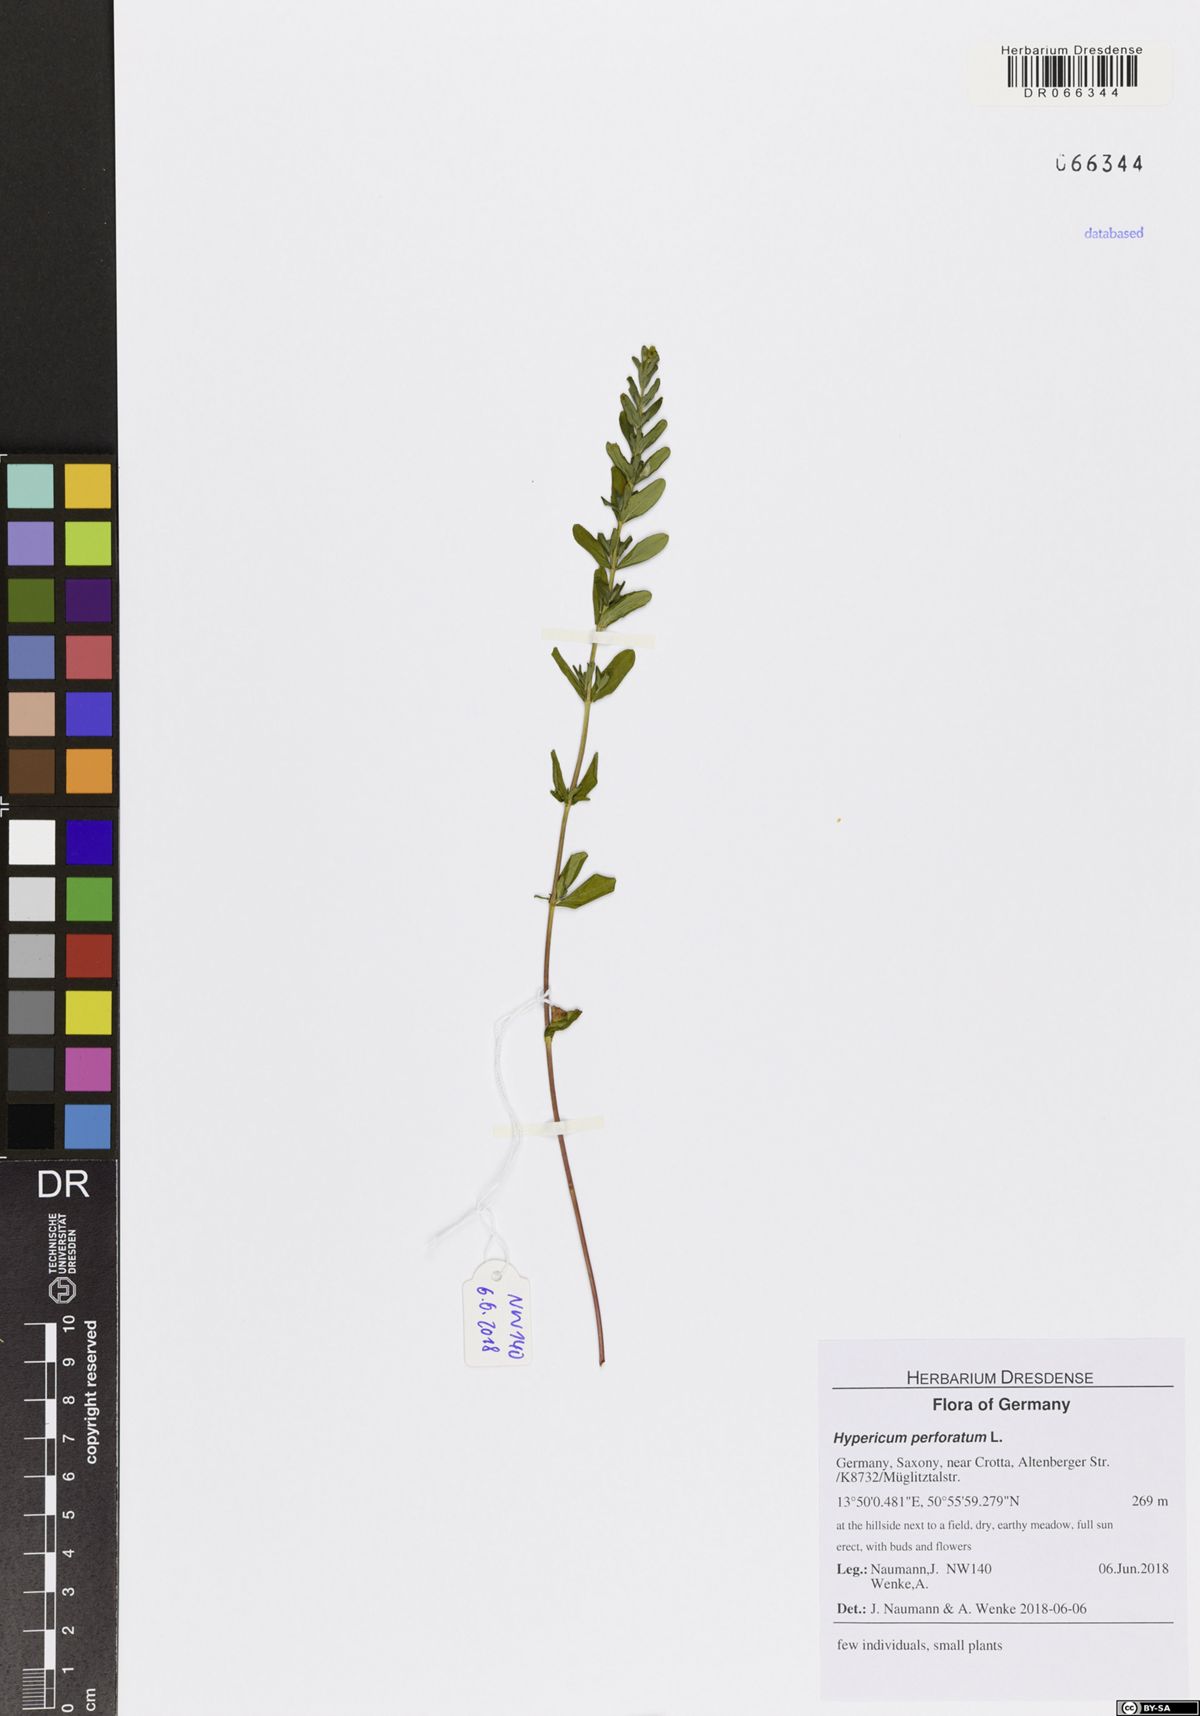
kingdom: Plantae
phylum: Tracheophyta
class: Magnoliopsida
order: Malpighiales
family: Hypericaceae
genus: Hypericum
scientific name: Hypericum perforatum
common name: Common st. johnswort
